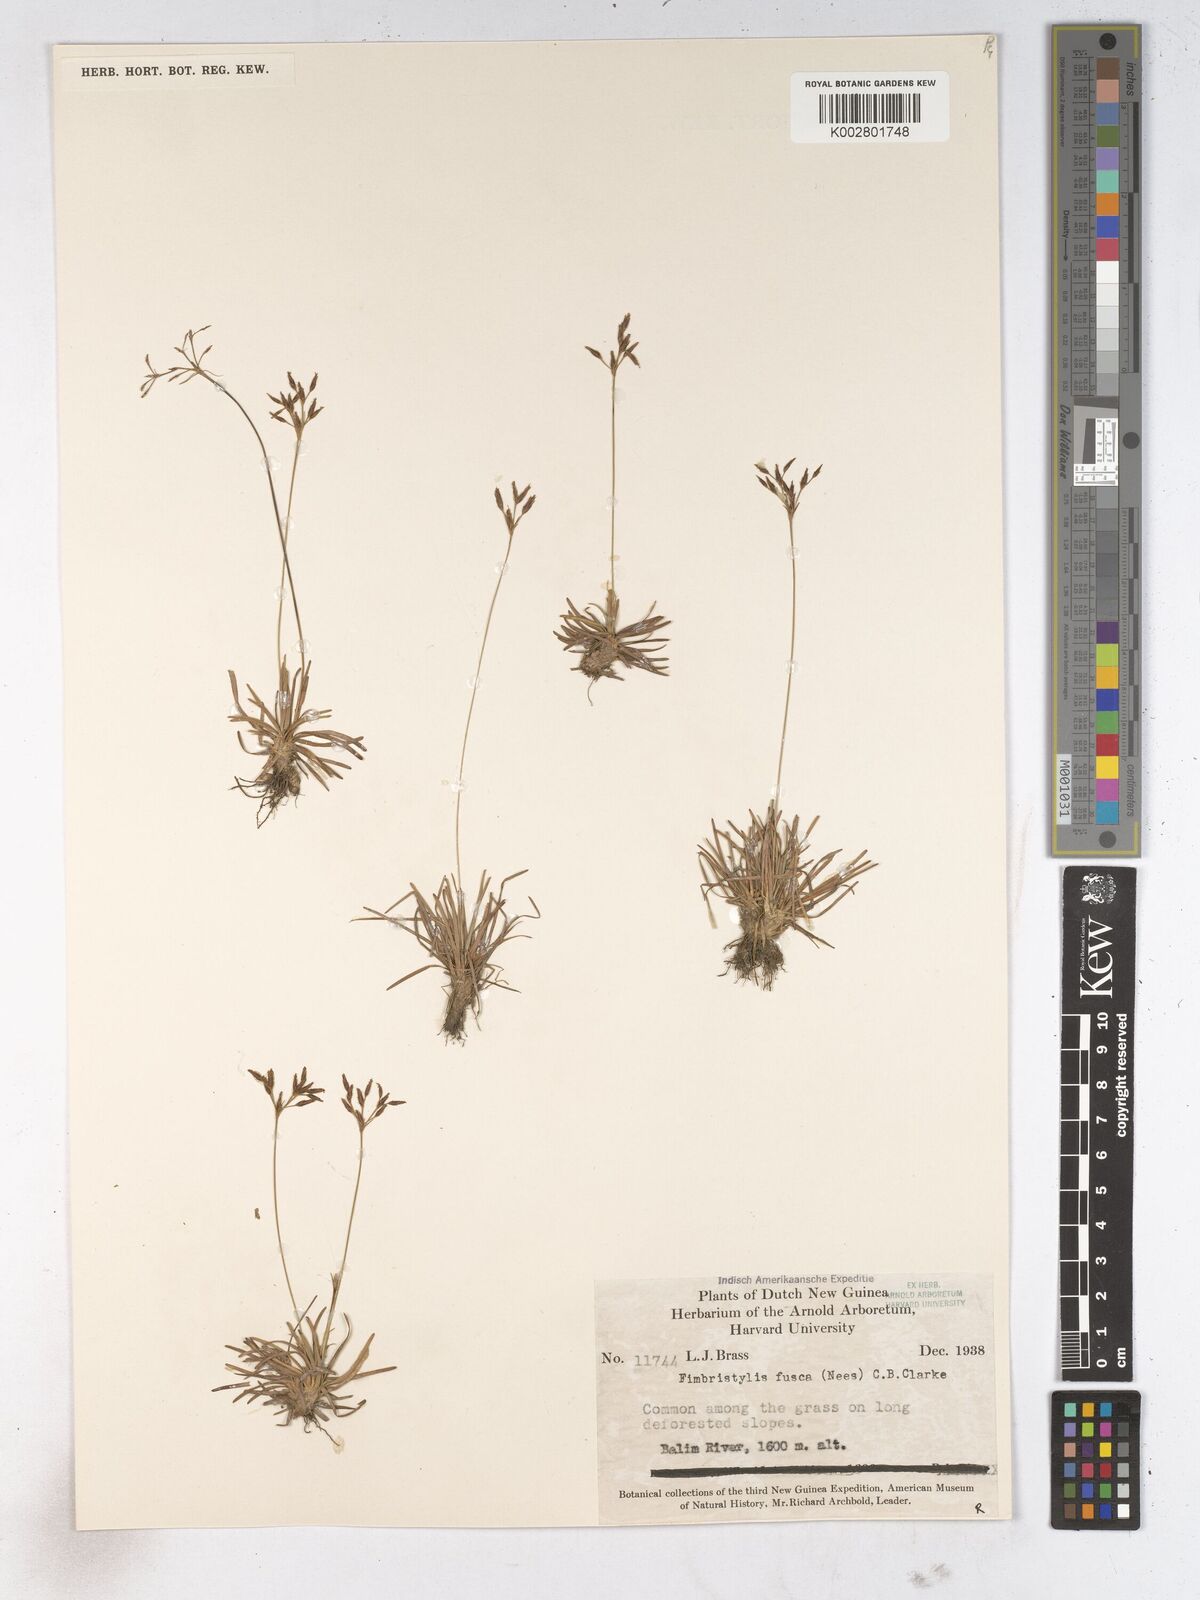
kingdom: Plantae
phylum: Tracheophyta
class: Liliopsida
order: Poales
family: Cyperaceae
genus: Fimbristylis
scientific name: Fimbristylis fusca
